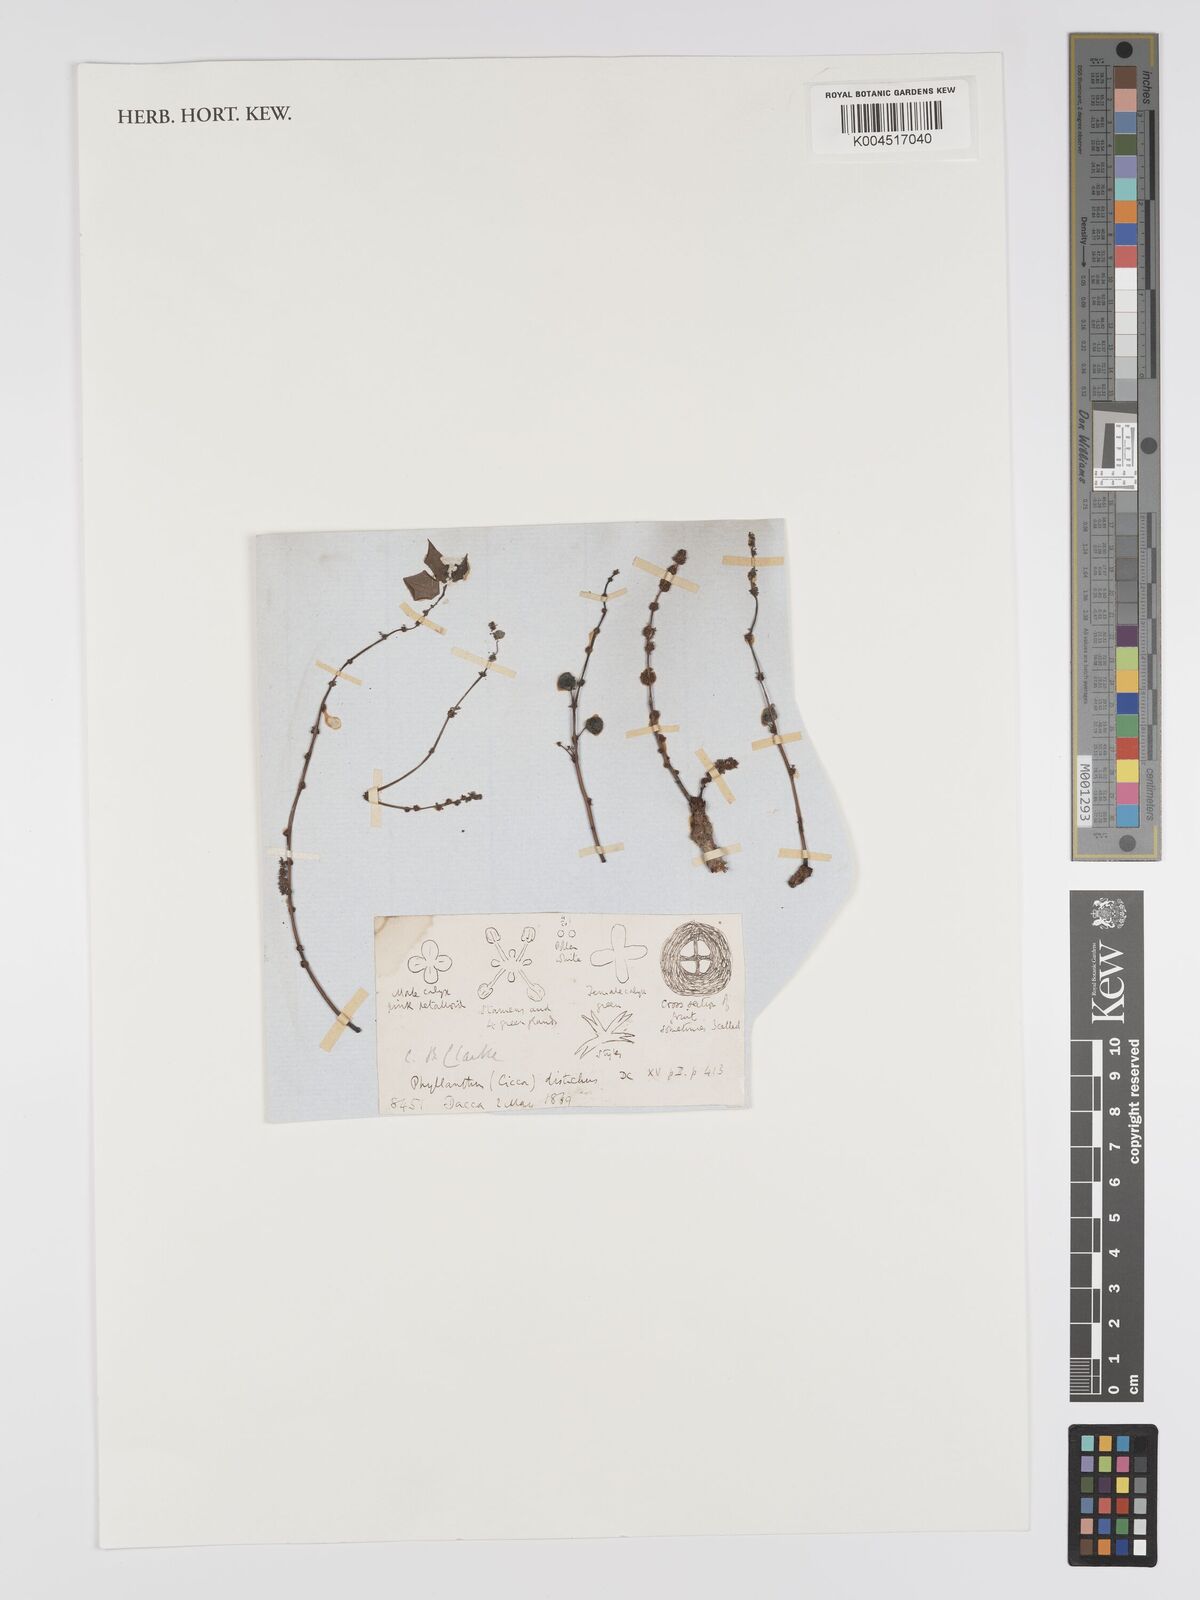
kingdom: Plantae
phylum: Tracheophyta
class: Magnoliopsida
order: Malpighiales
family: Phyllanthaceae
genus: Phyllanthus
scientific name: Phyllanthus acidus
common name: Tahitian gooseberry tree
